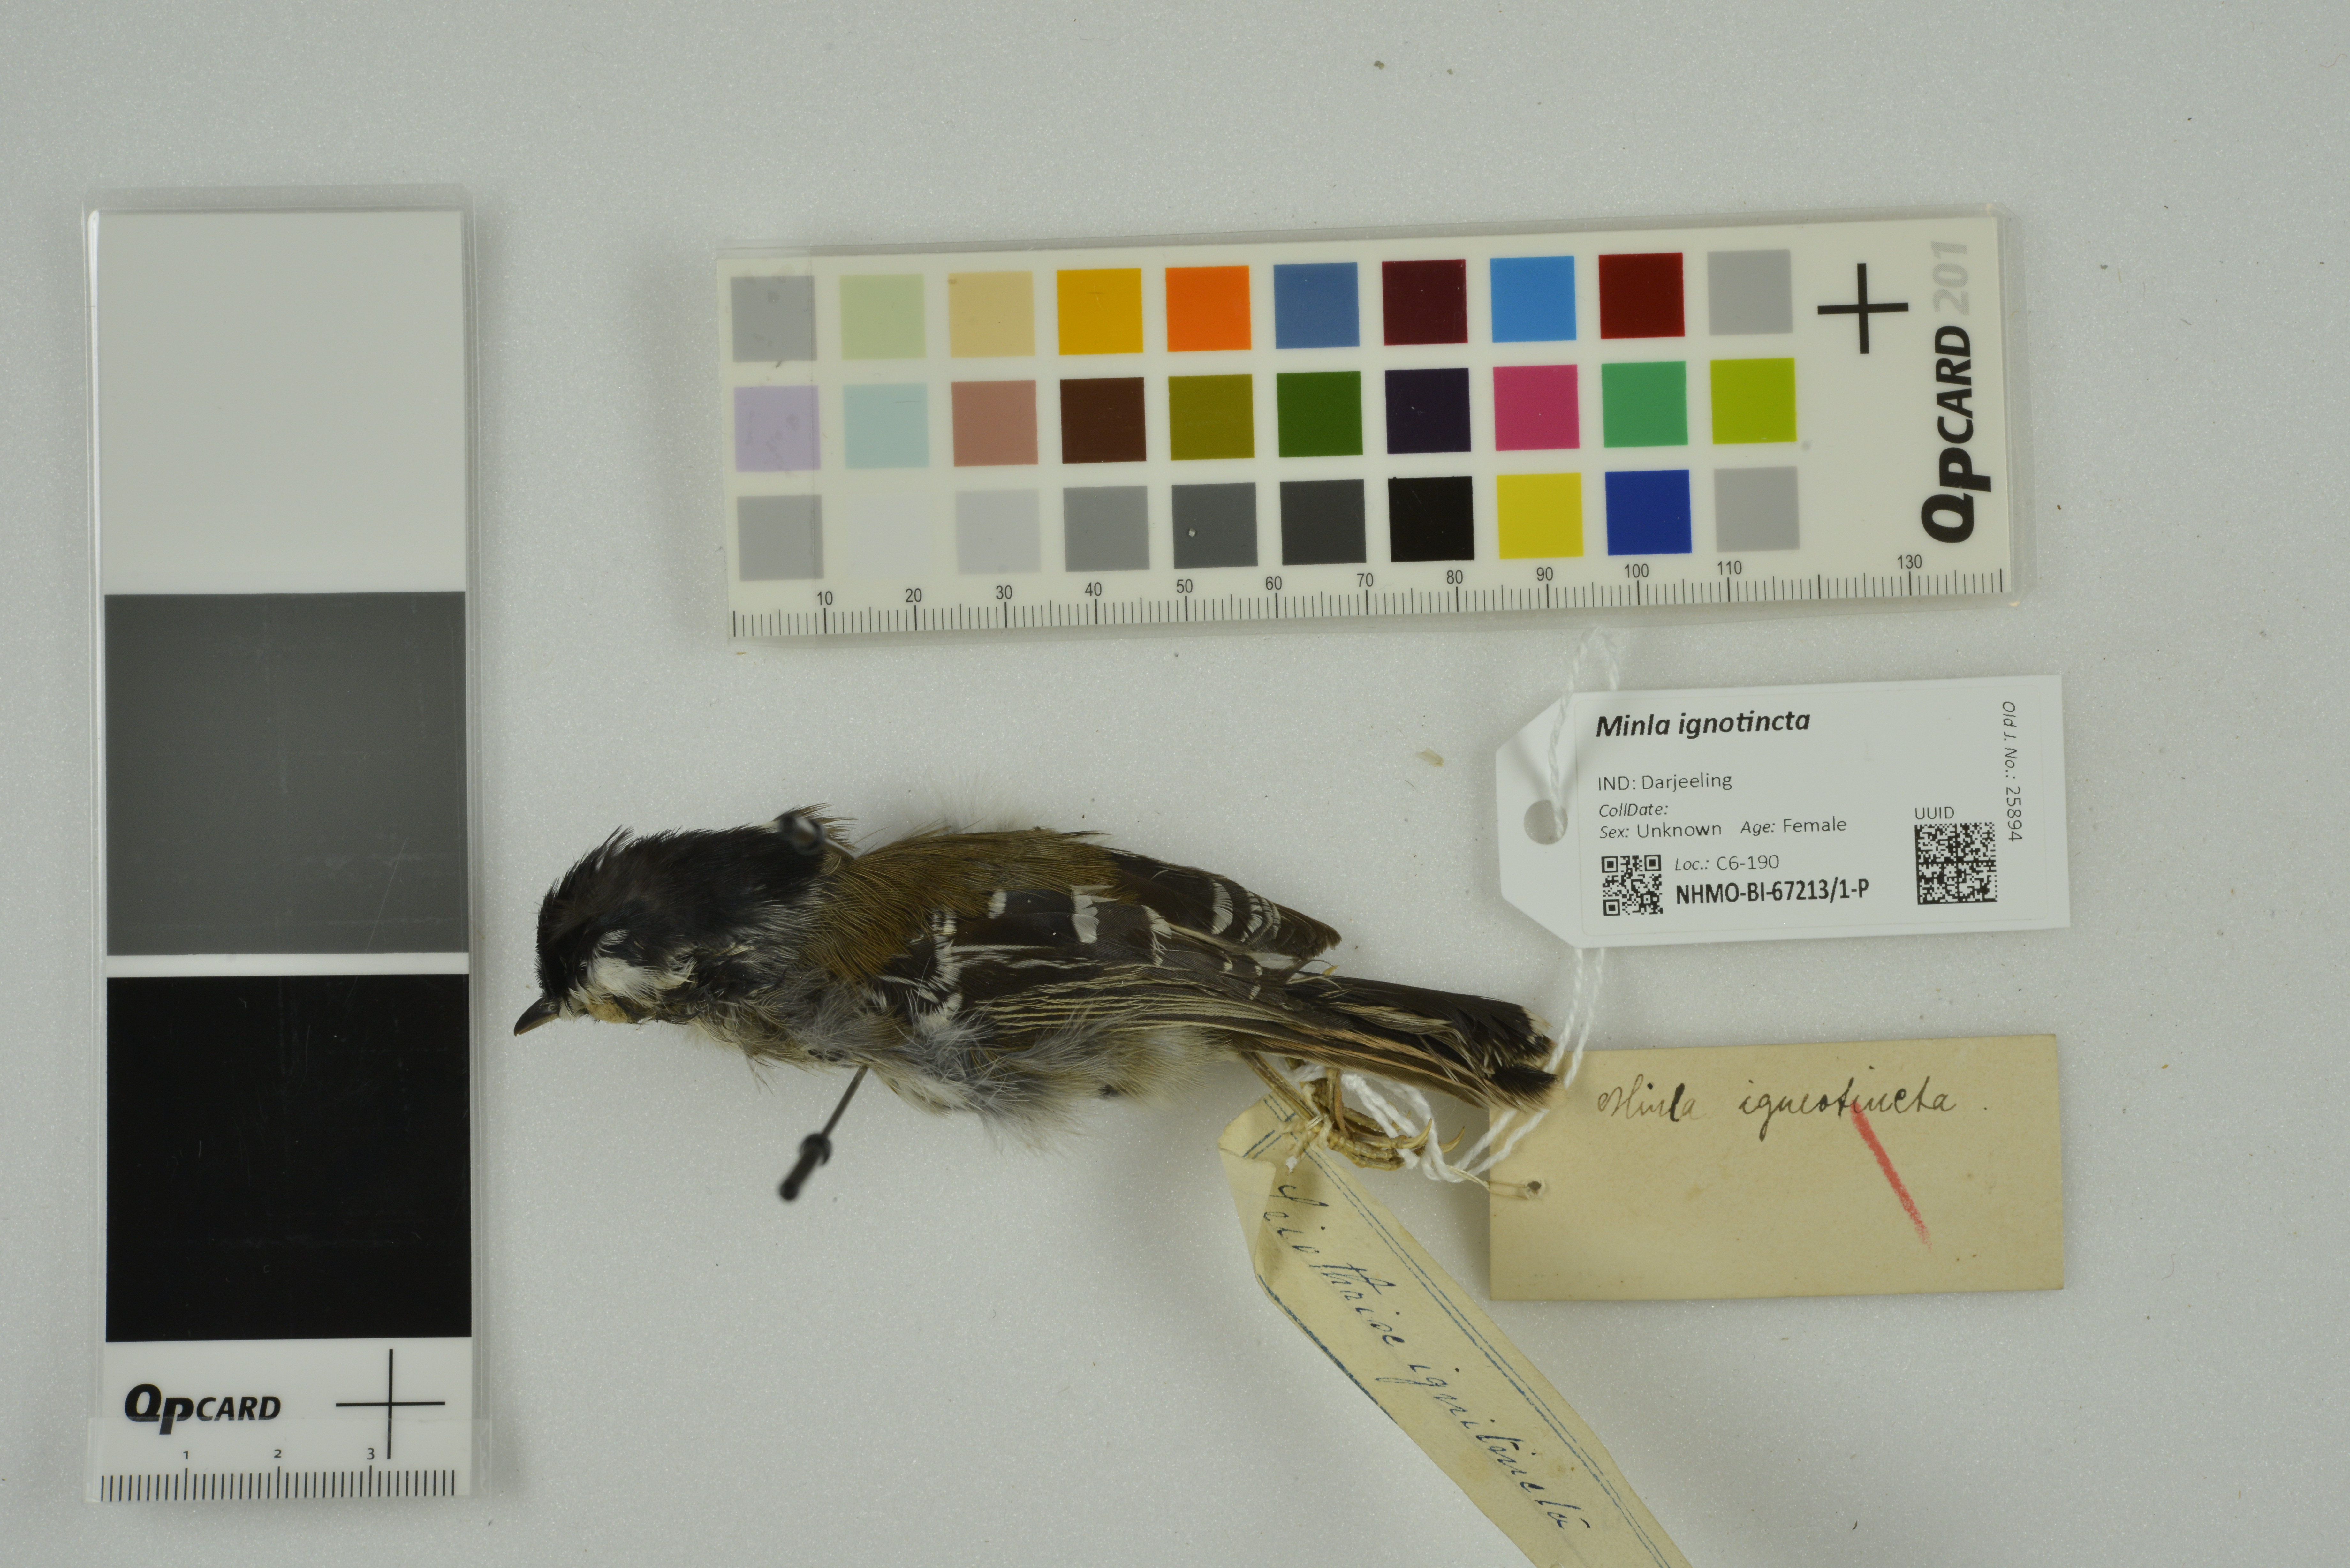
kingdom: Animalia
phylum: Chordata
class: Aves
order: Passeriformes
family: Leiothrichidae
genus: Minla
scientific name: Minla ignotincta
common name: Red-tailed minla
